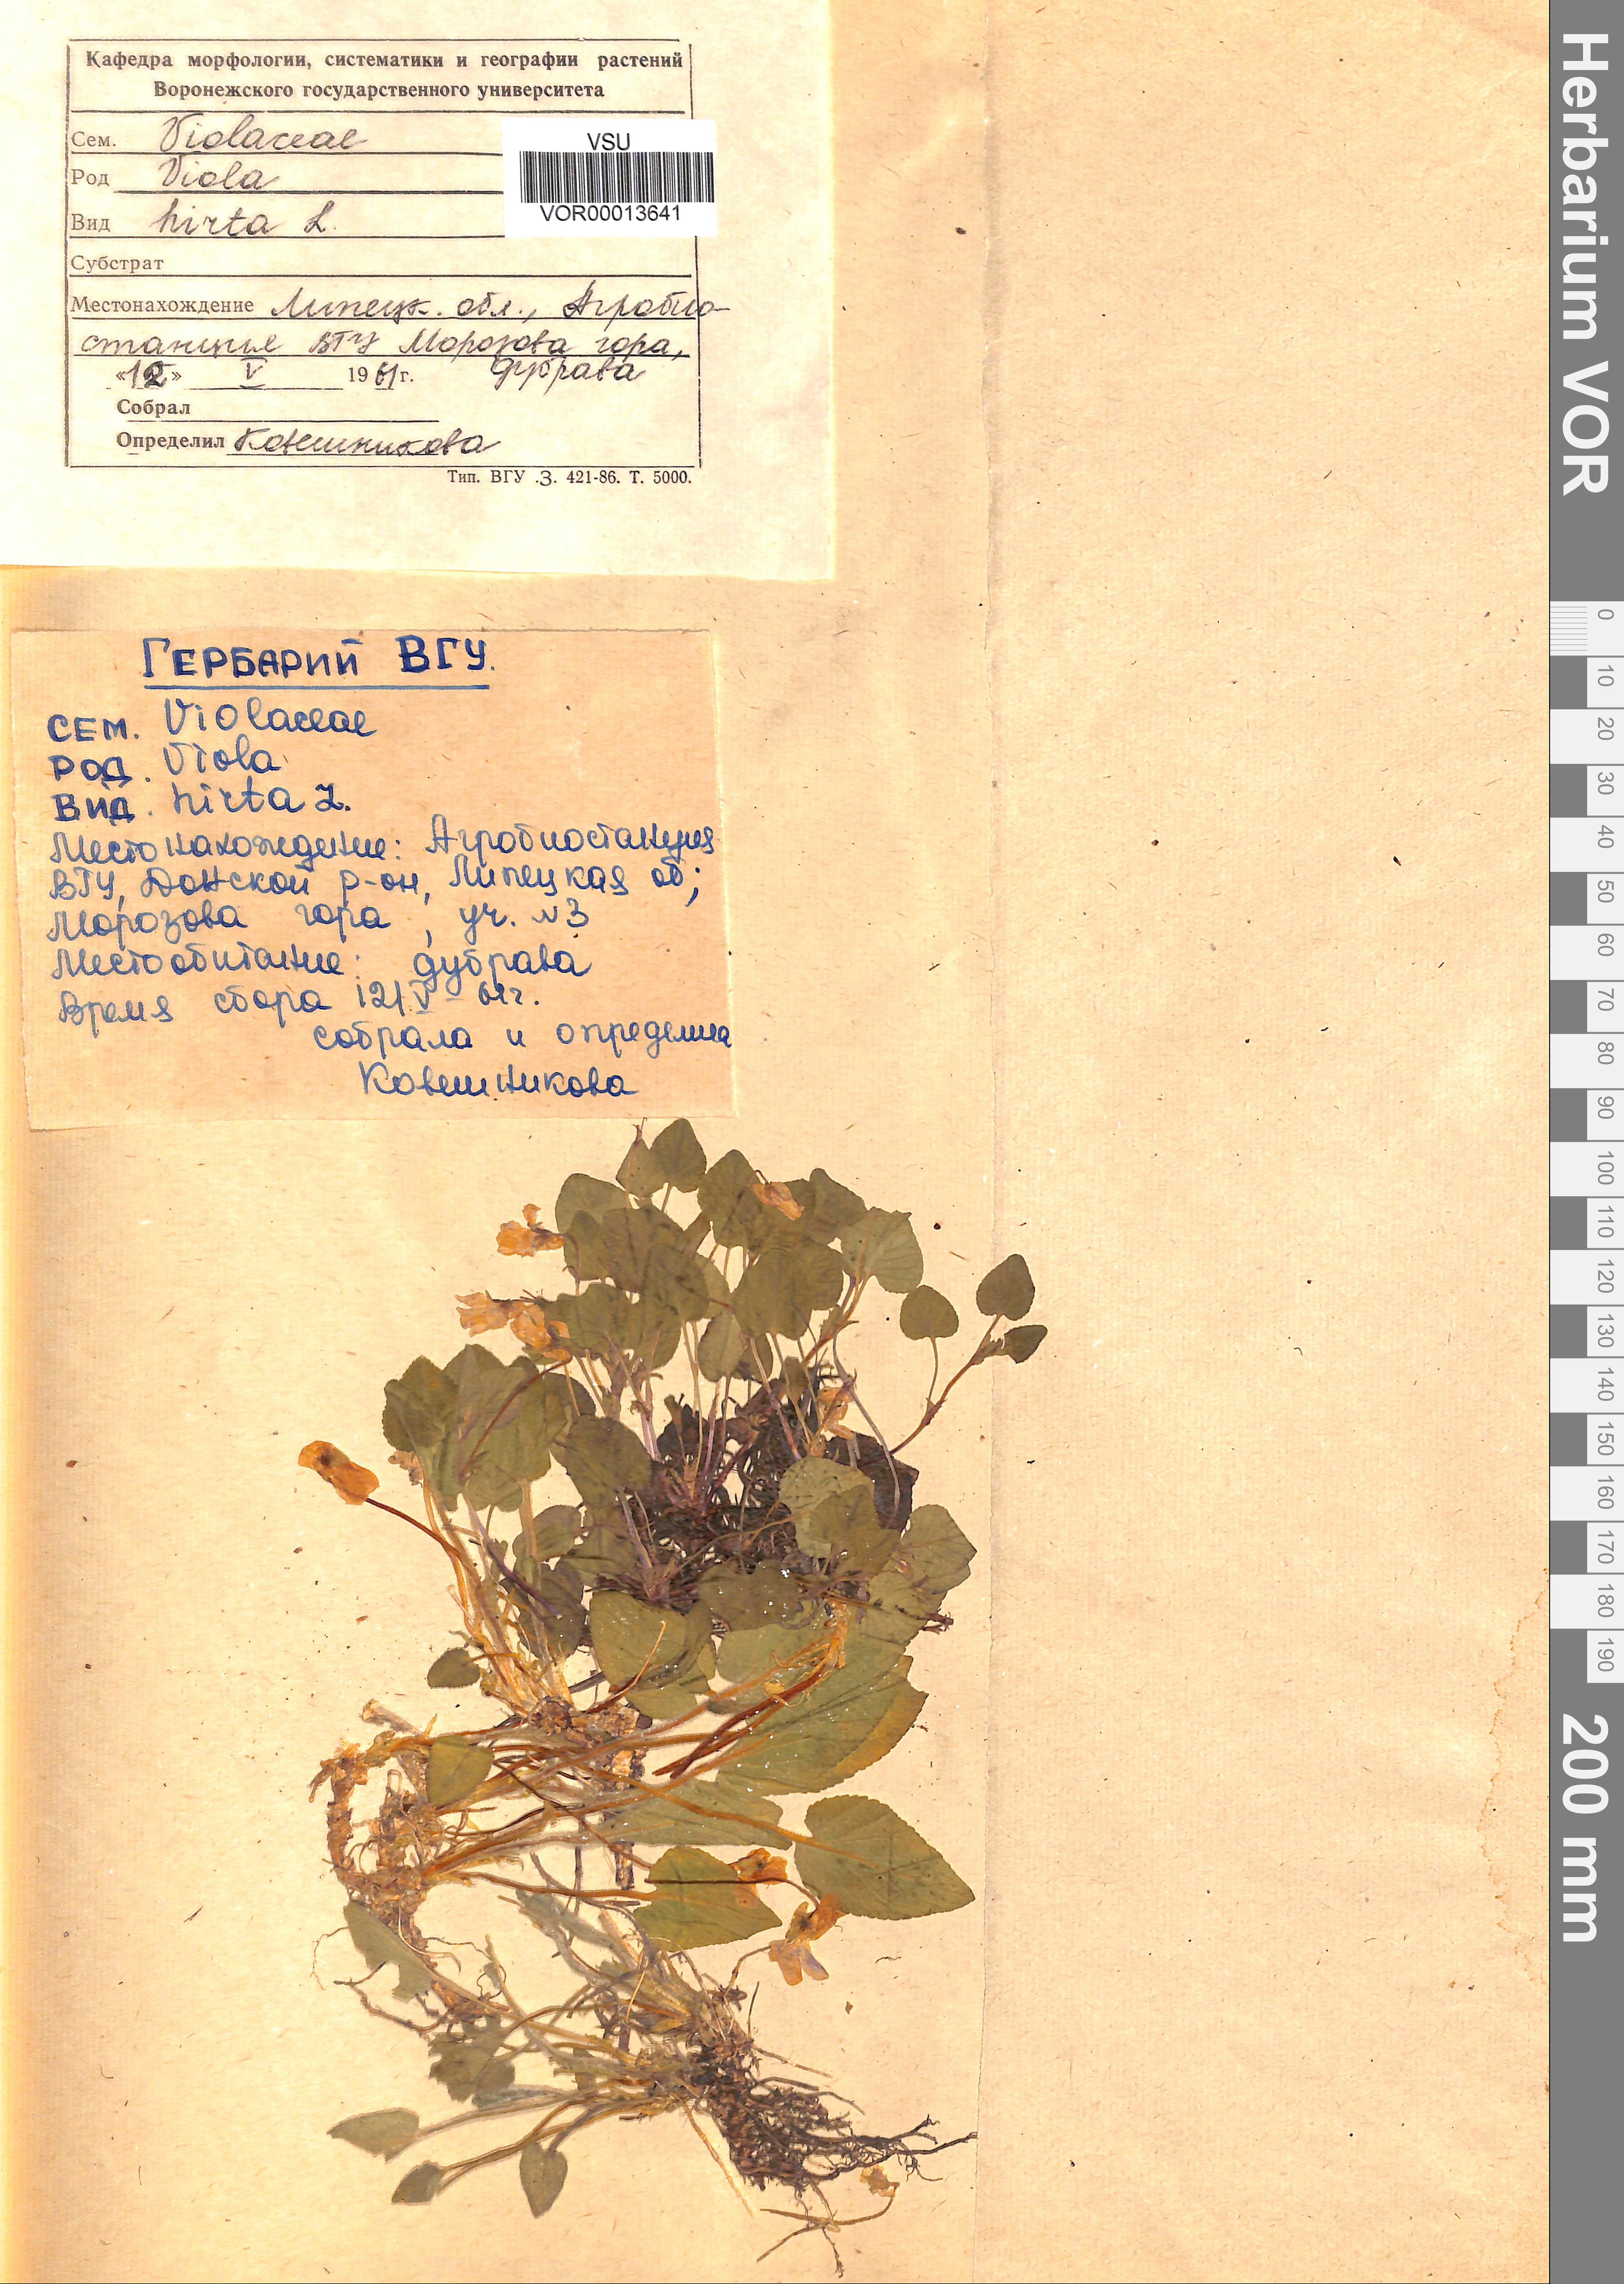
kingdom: Plantae
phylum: Tracheophyta
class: Magnoliopsida
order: Malpighiales
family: Violaceae
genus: Viola
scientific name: Viola hirta
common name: Hairy violet
